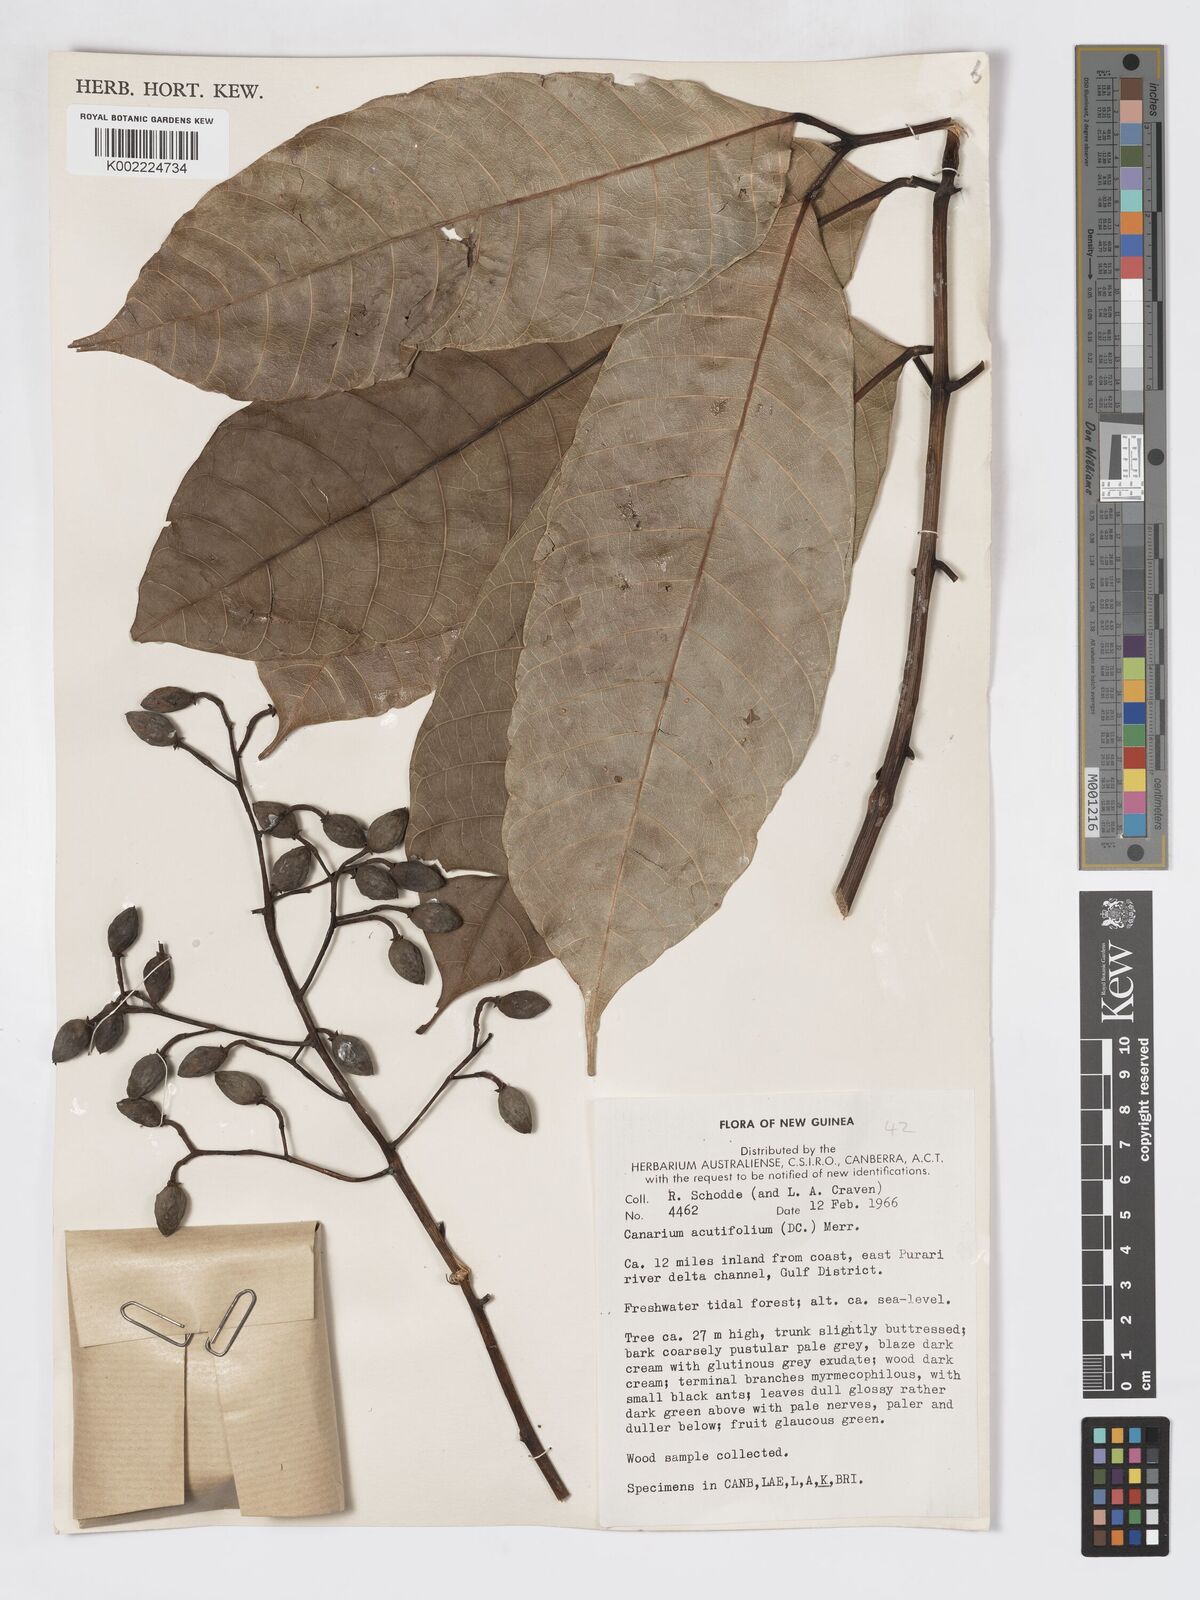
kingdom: Plantae
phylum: Tracheophyta
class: Magnoliopsida
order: Sapindales
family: Burseraceae
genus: Canarium
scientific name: Canarium acutifolium
